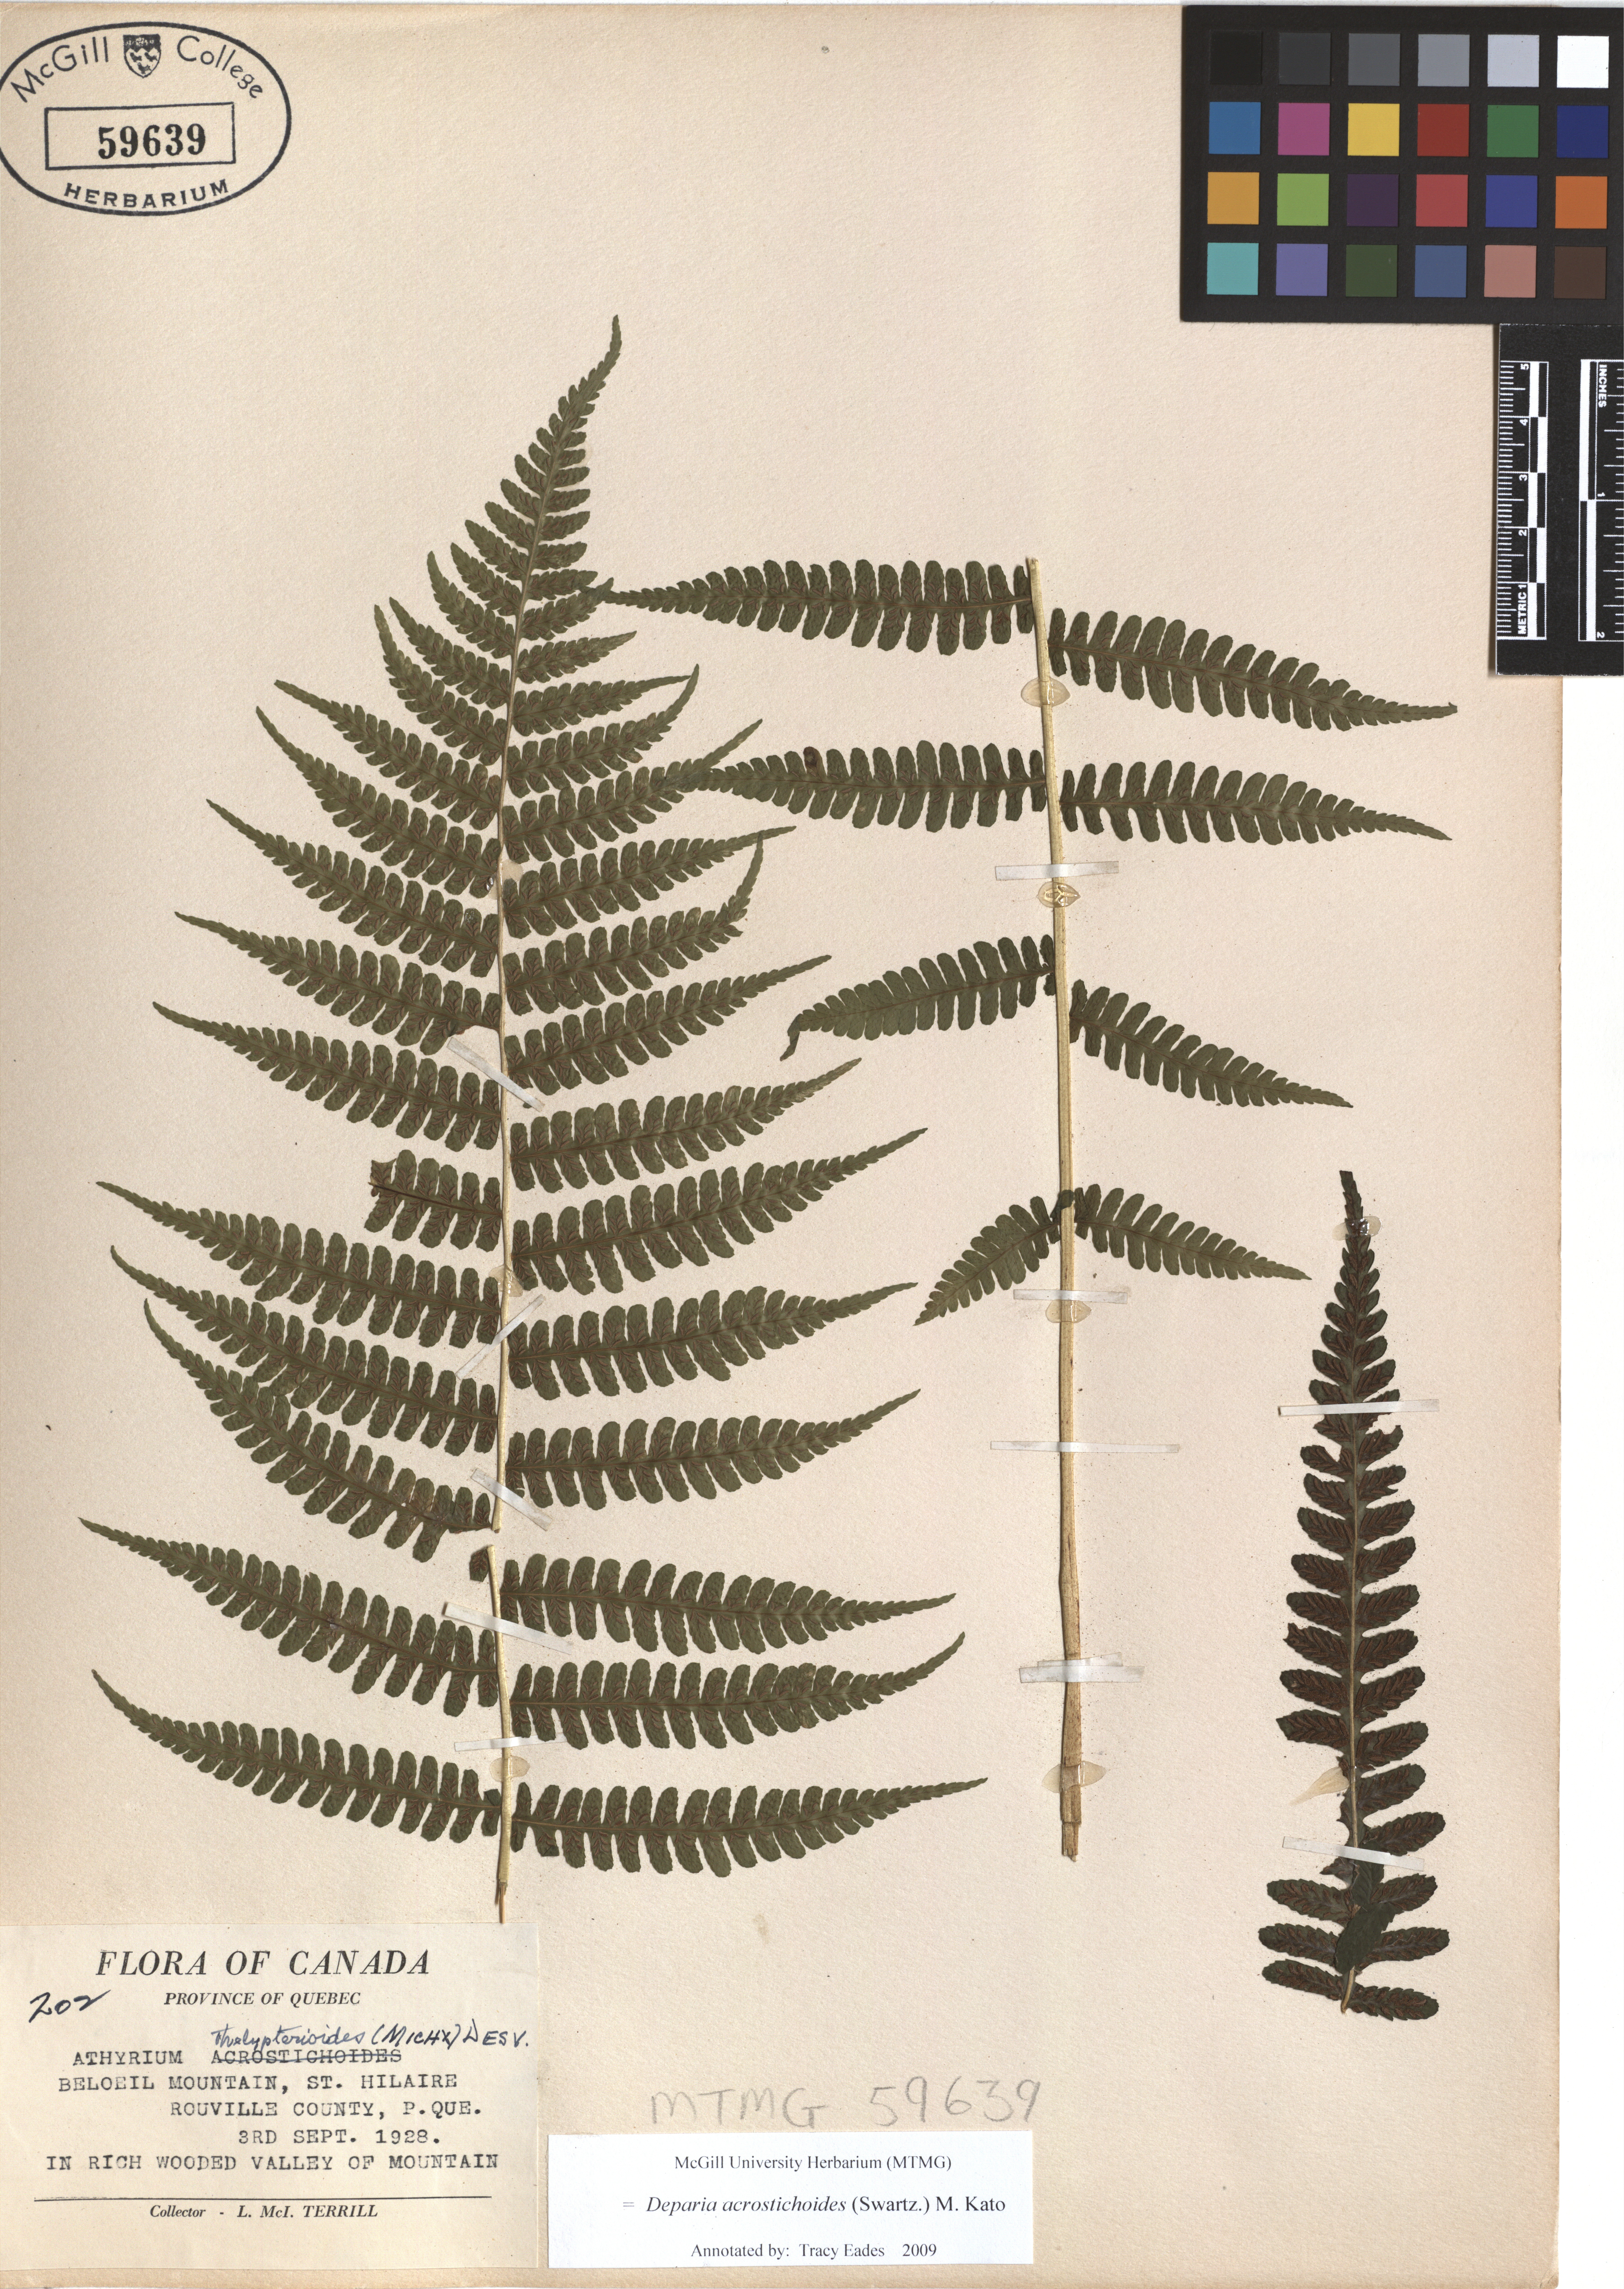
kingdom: Plantae
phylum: Tracheophyta
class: Polypodiopsida
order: Polypodiales
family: Athyriaceae
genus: Deparia
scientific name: Deparia acrostichoides
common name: Silver false spleenwort
